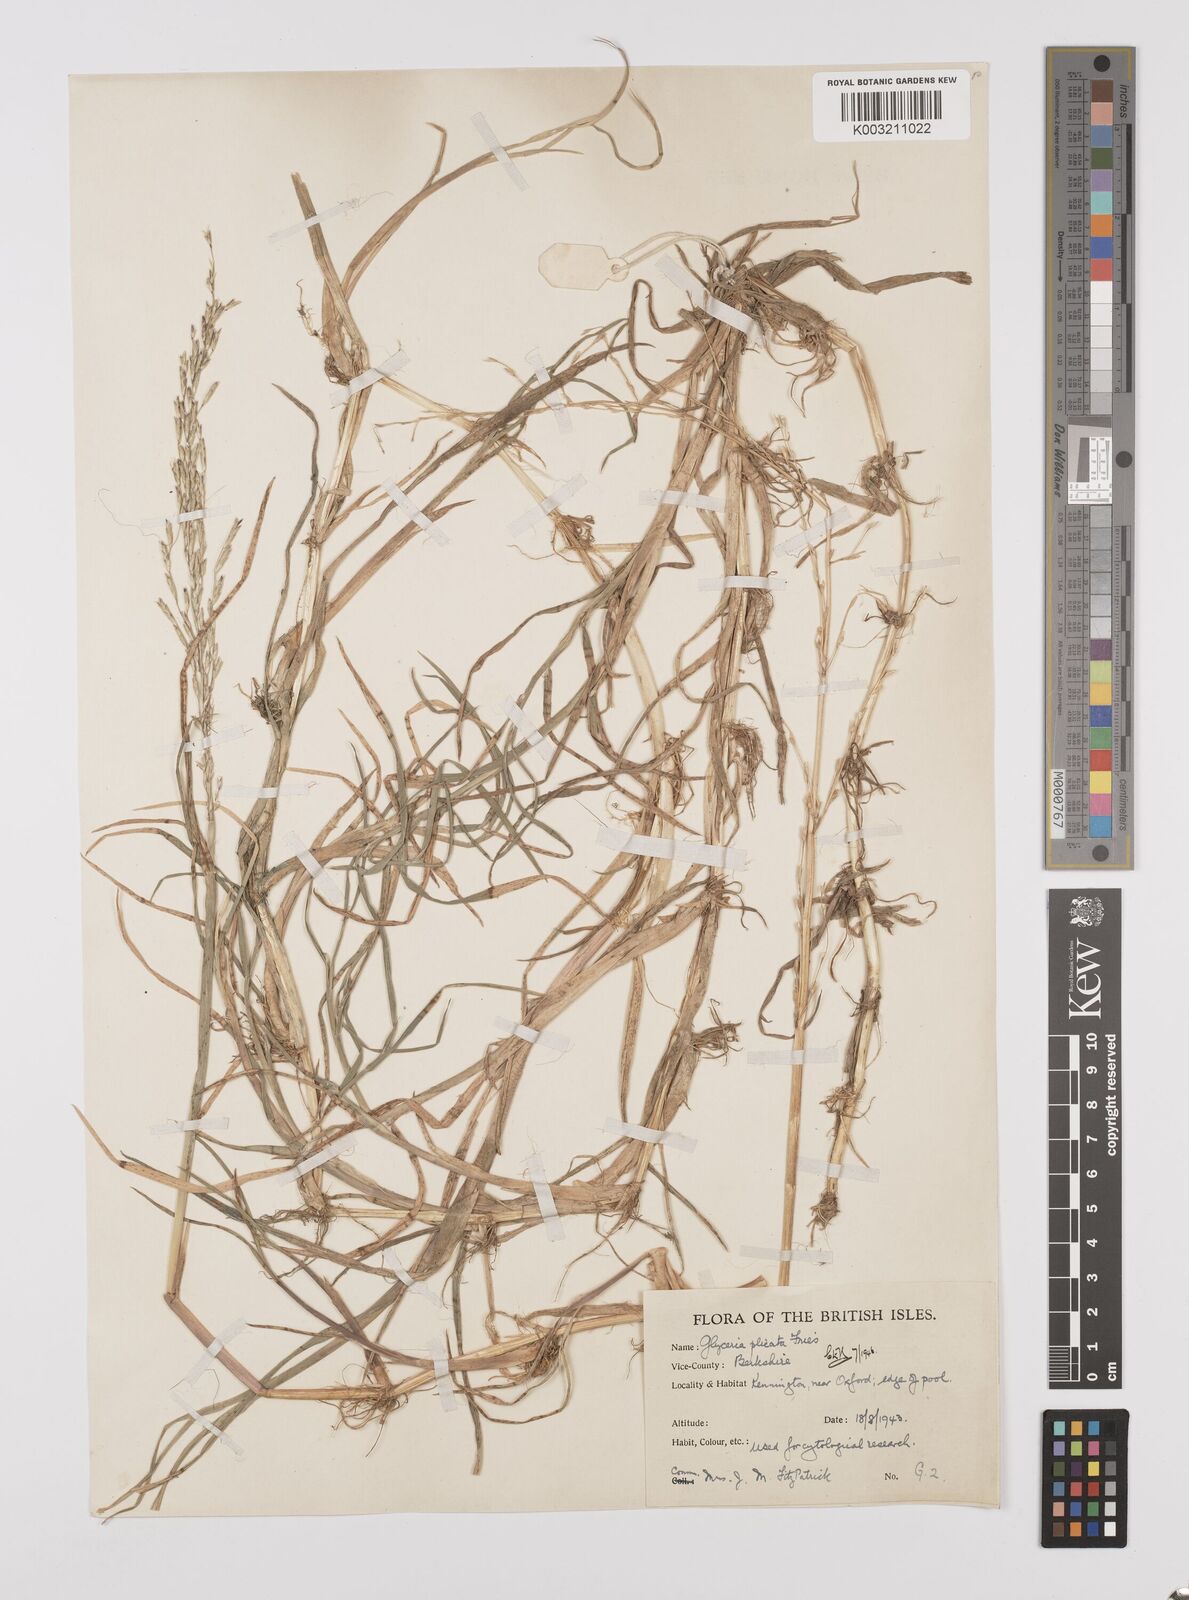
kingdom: Plantae
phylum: Tracheophyta
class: Liliopsida
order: Poales
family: Poaceae
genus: Glyceria
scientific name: Glyceria notata
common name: Plicate sweet-grass
